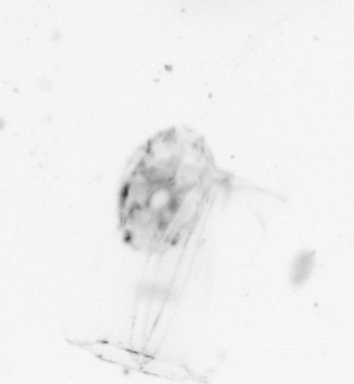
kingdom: Animalia
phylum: Chordata
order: Copelata
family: Fritillariidae
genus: Appendicularia
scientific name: Appendicularia
